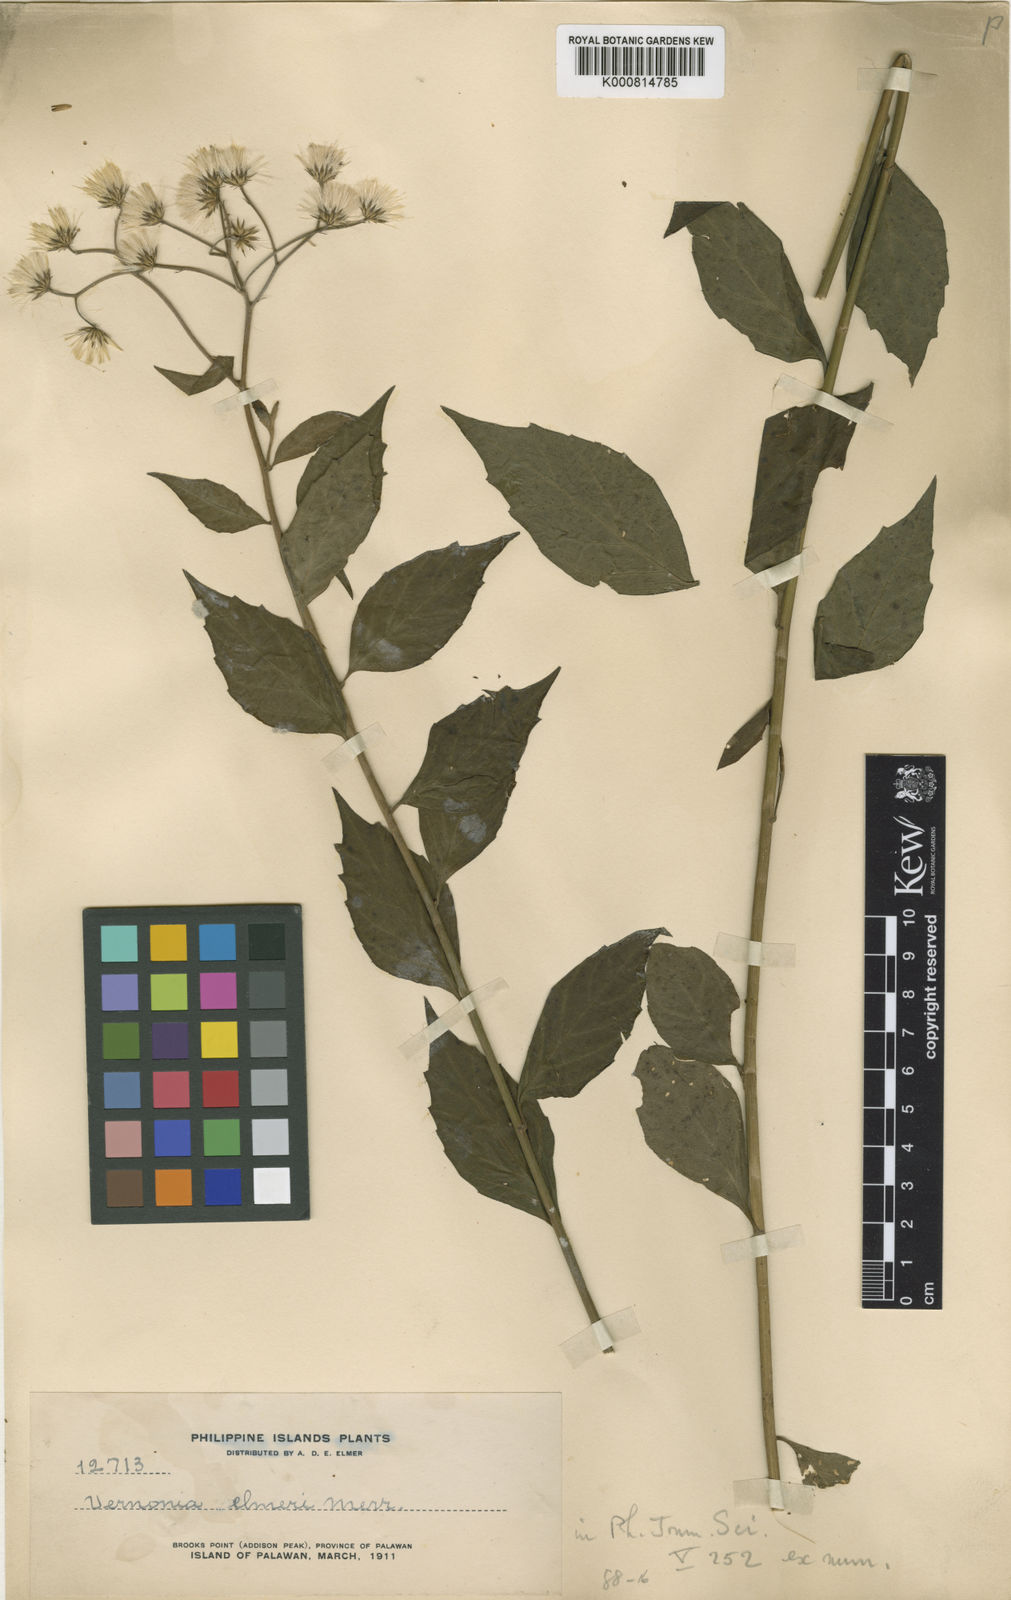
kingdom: Plantae
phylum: Tracheophyta
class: Magnoliopsida
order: Asterales
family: Asteraceae
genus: Vernonia
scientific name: Vernonia elmeri
